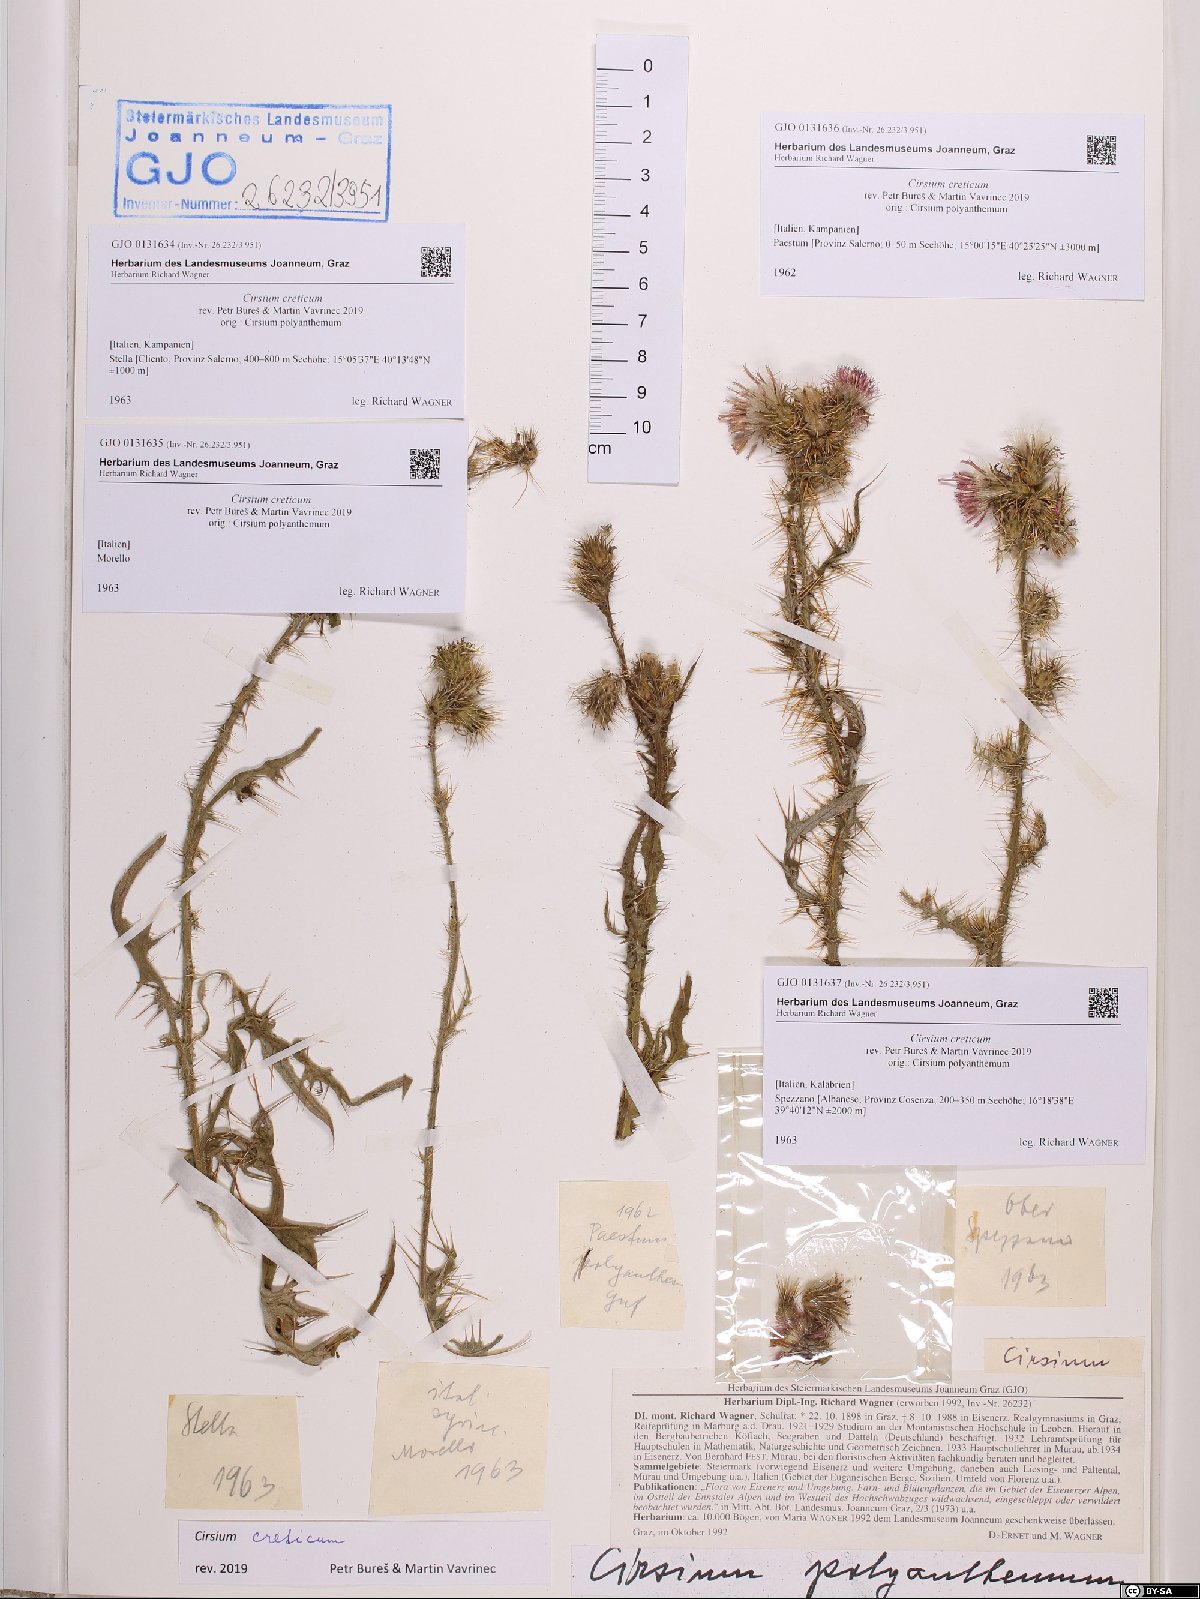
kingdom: Plantae
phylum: Tracheophyta
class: Magnoliopsida
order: Asterales
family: Asteraceae
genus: Cirsium
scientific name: Cirsium creticum
